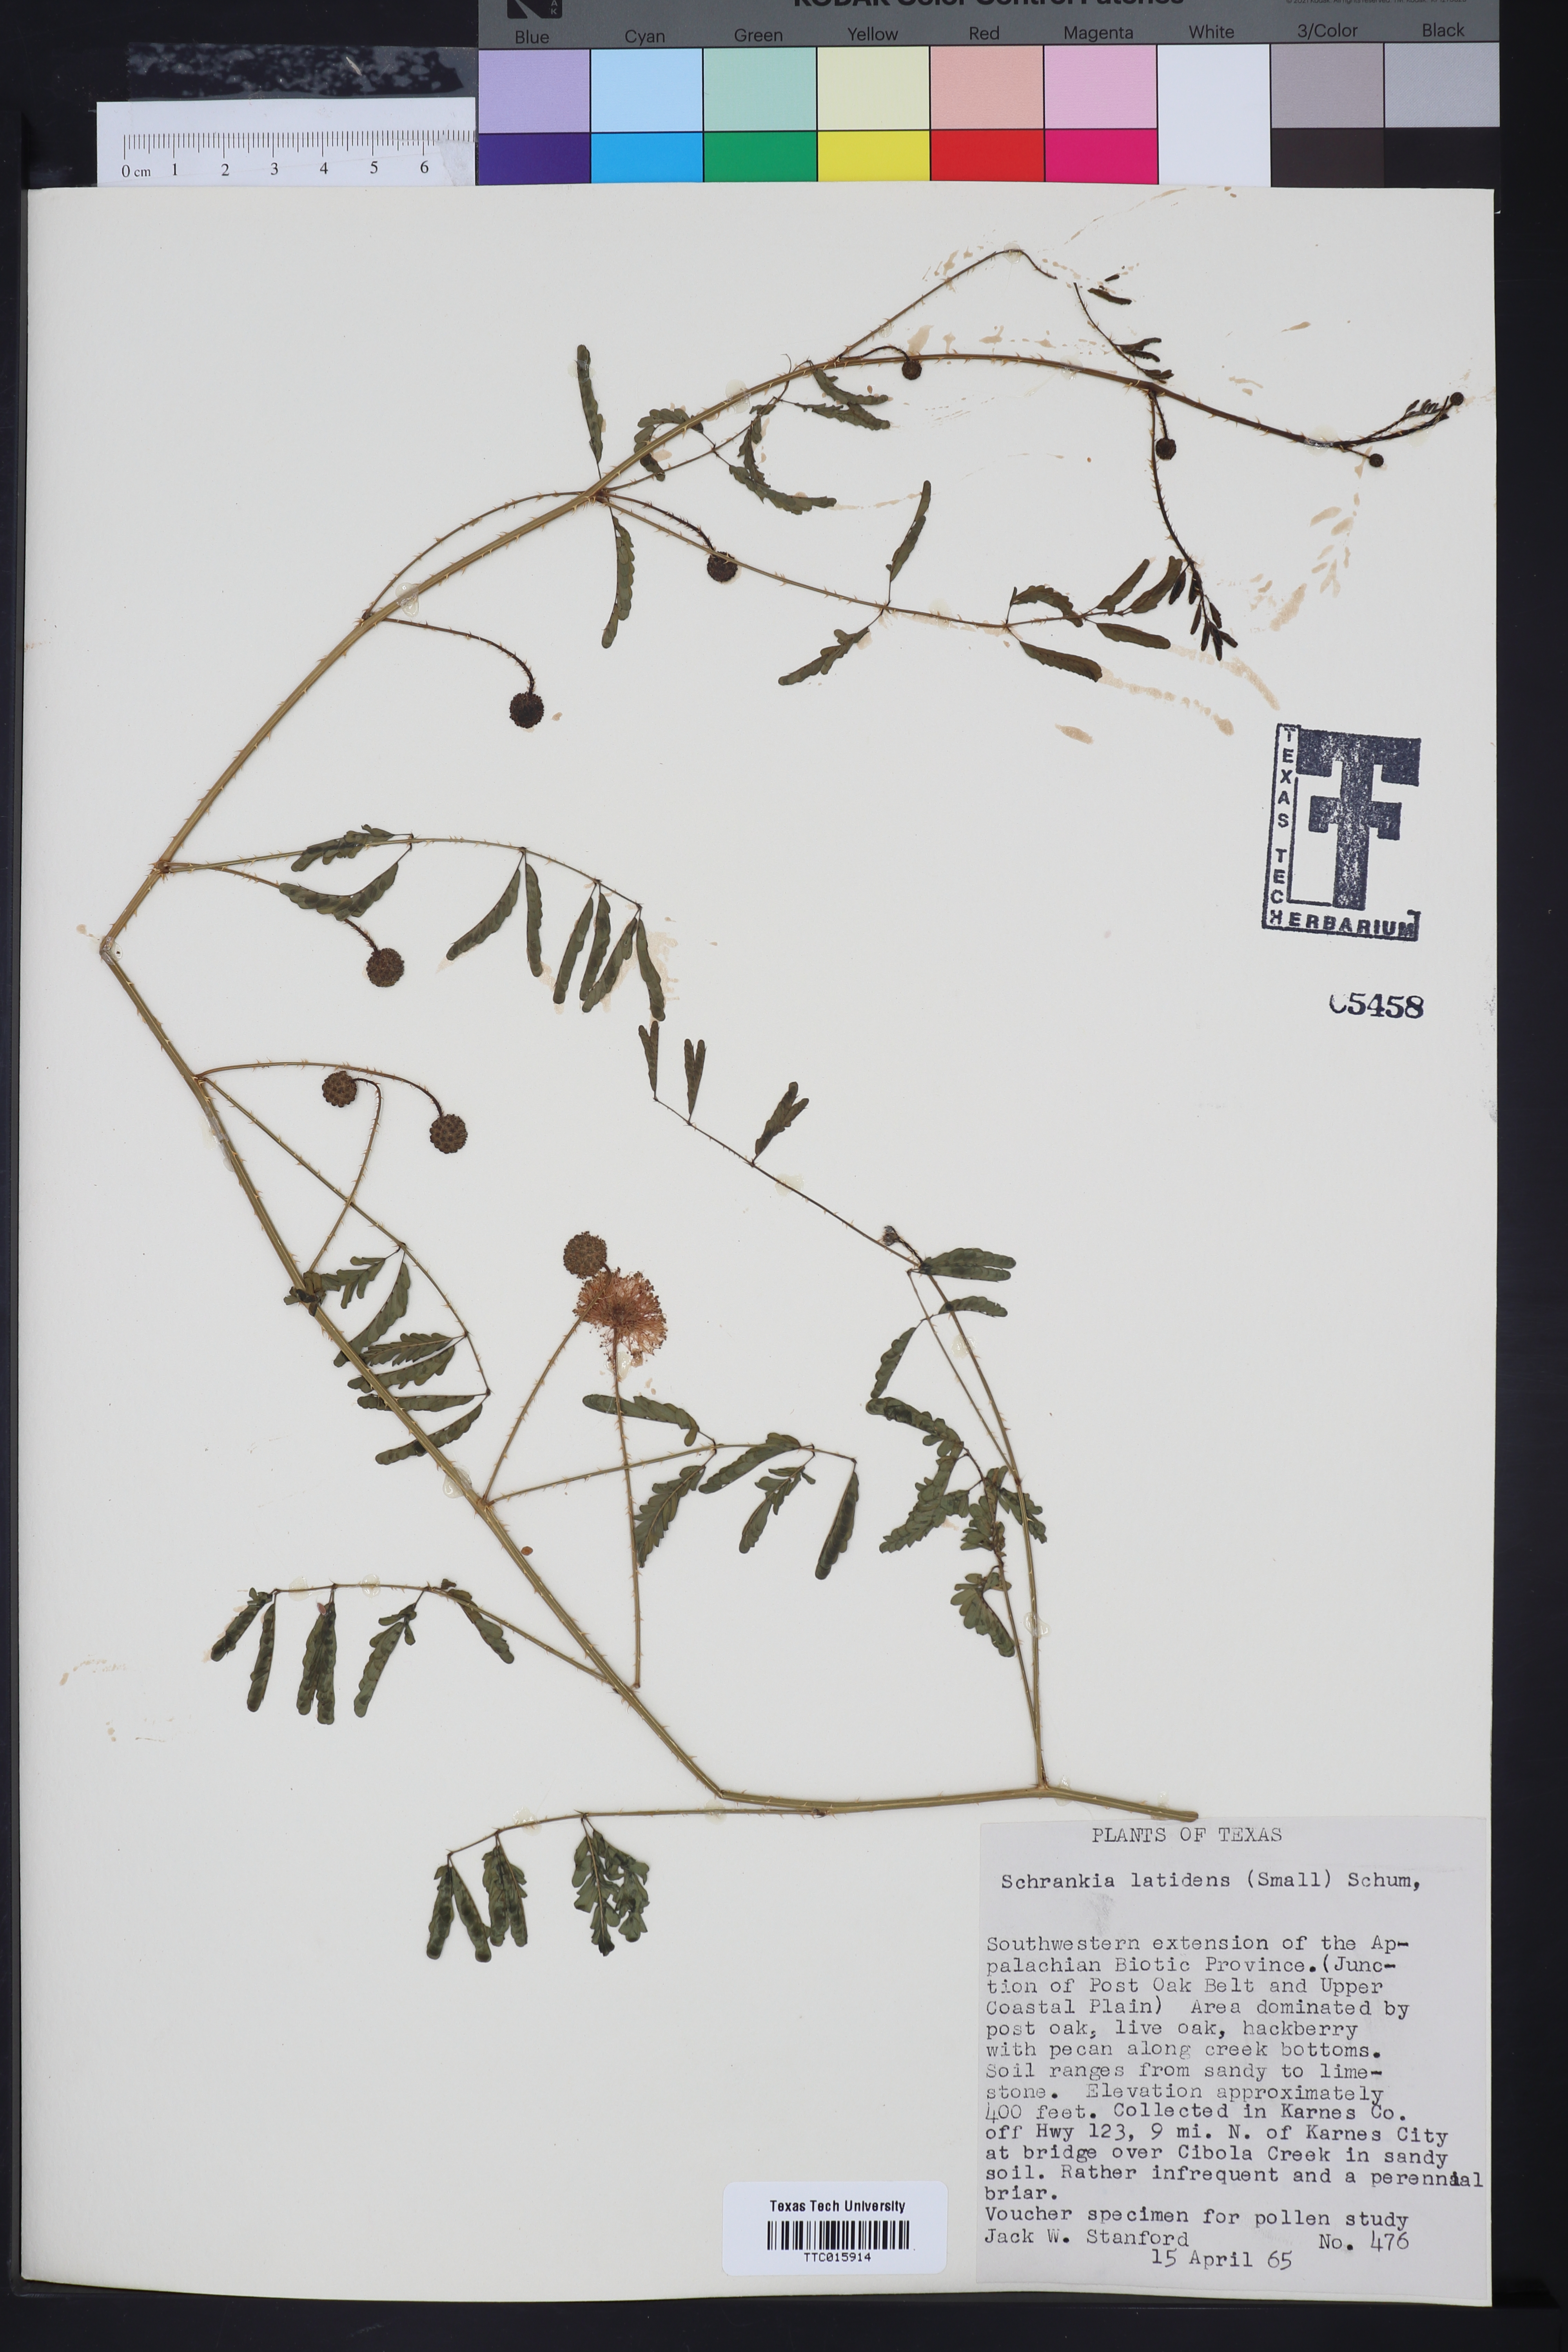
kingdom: Plantae
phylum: Tracheophyta
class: Magnoliopsida
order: Fabales
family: Fabaceae
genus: Mimosa
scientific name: Mimosa quadrivalvis
